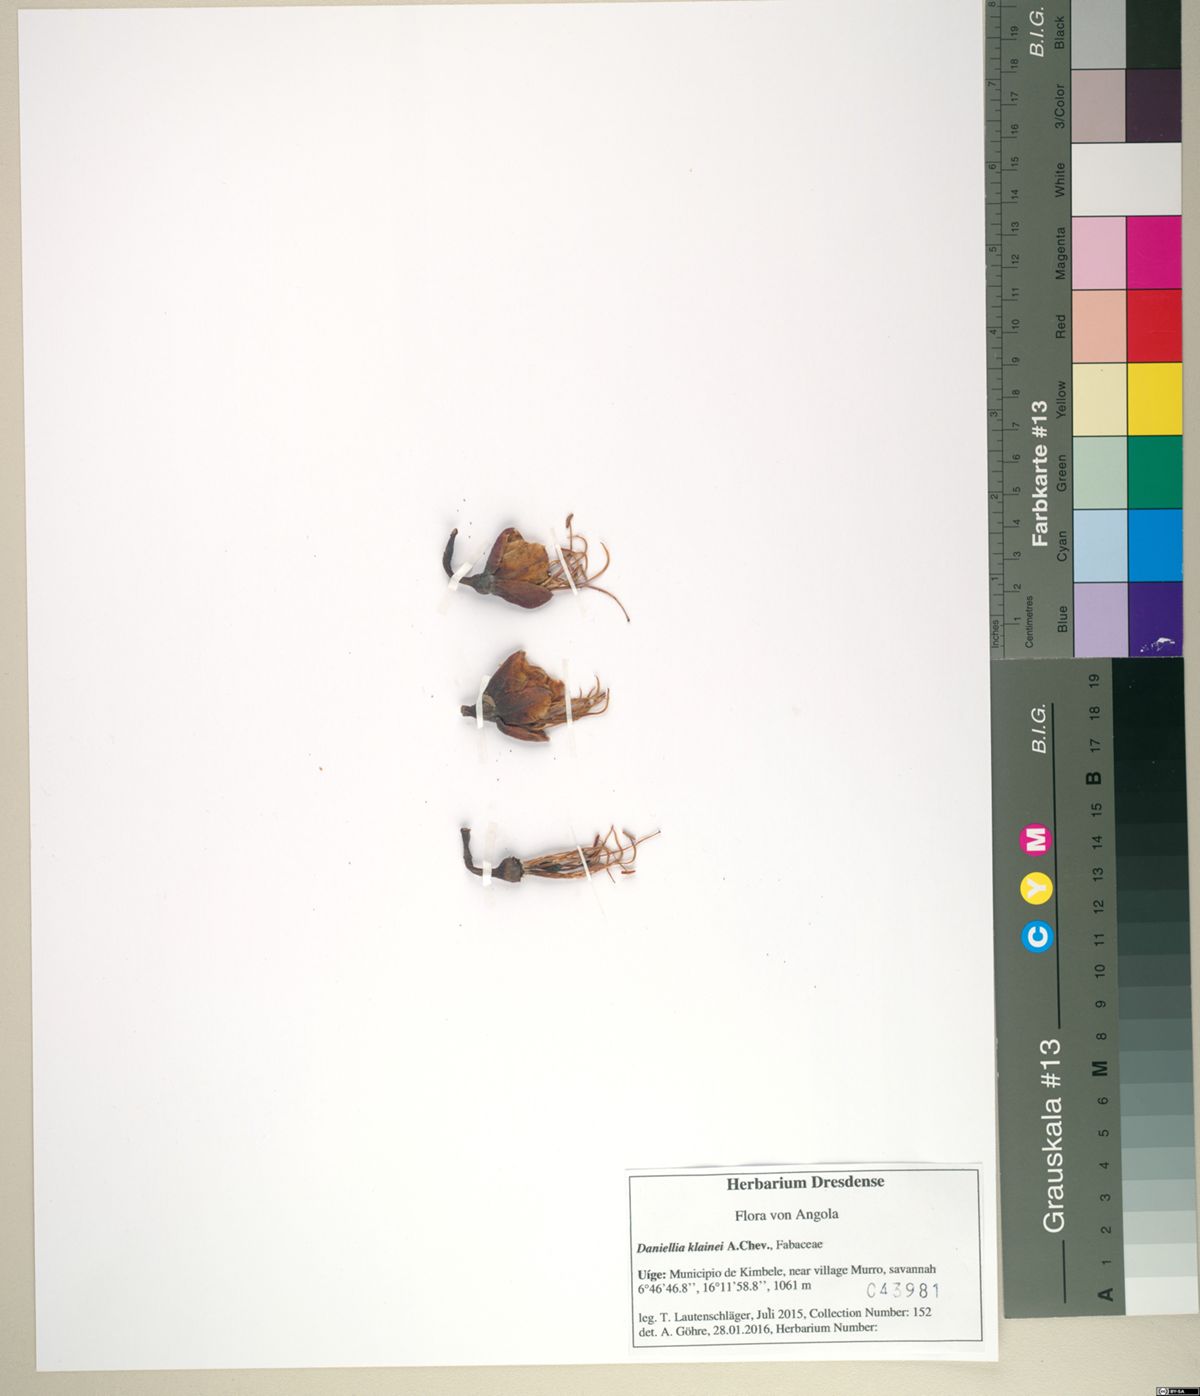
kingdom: Plantae
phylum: Tracheophyta
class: Magnoliopsida
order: Fabales
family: Fabaceae
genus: Daniellia
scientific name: Daniellia klainei
